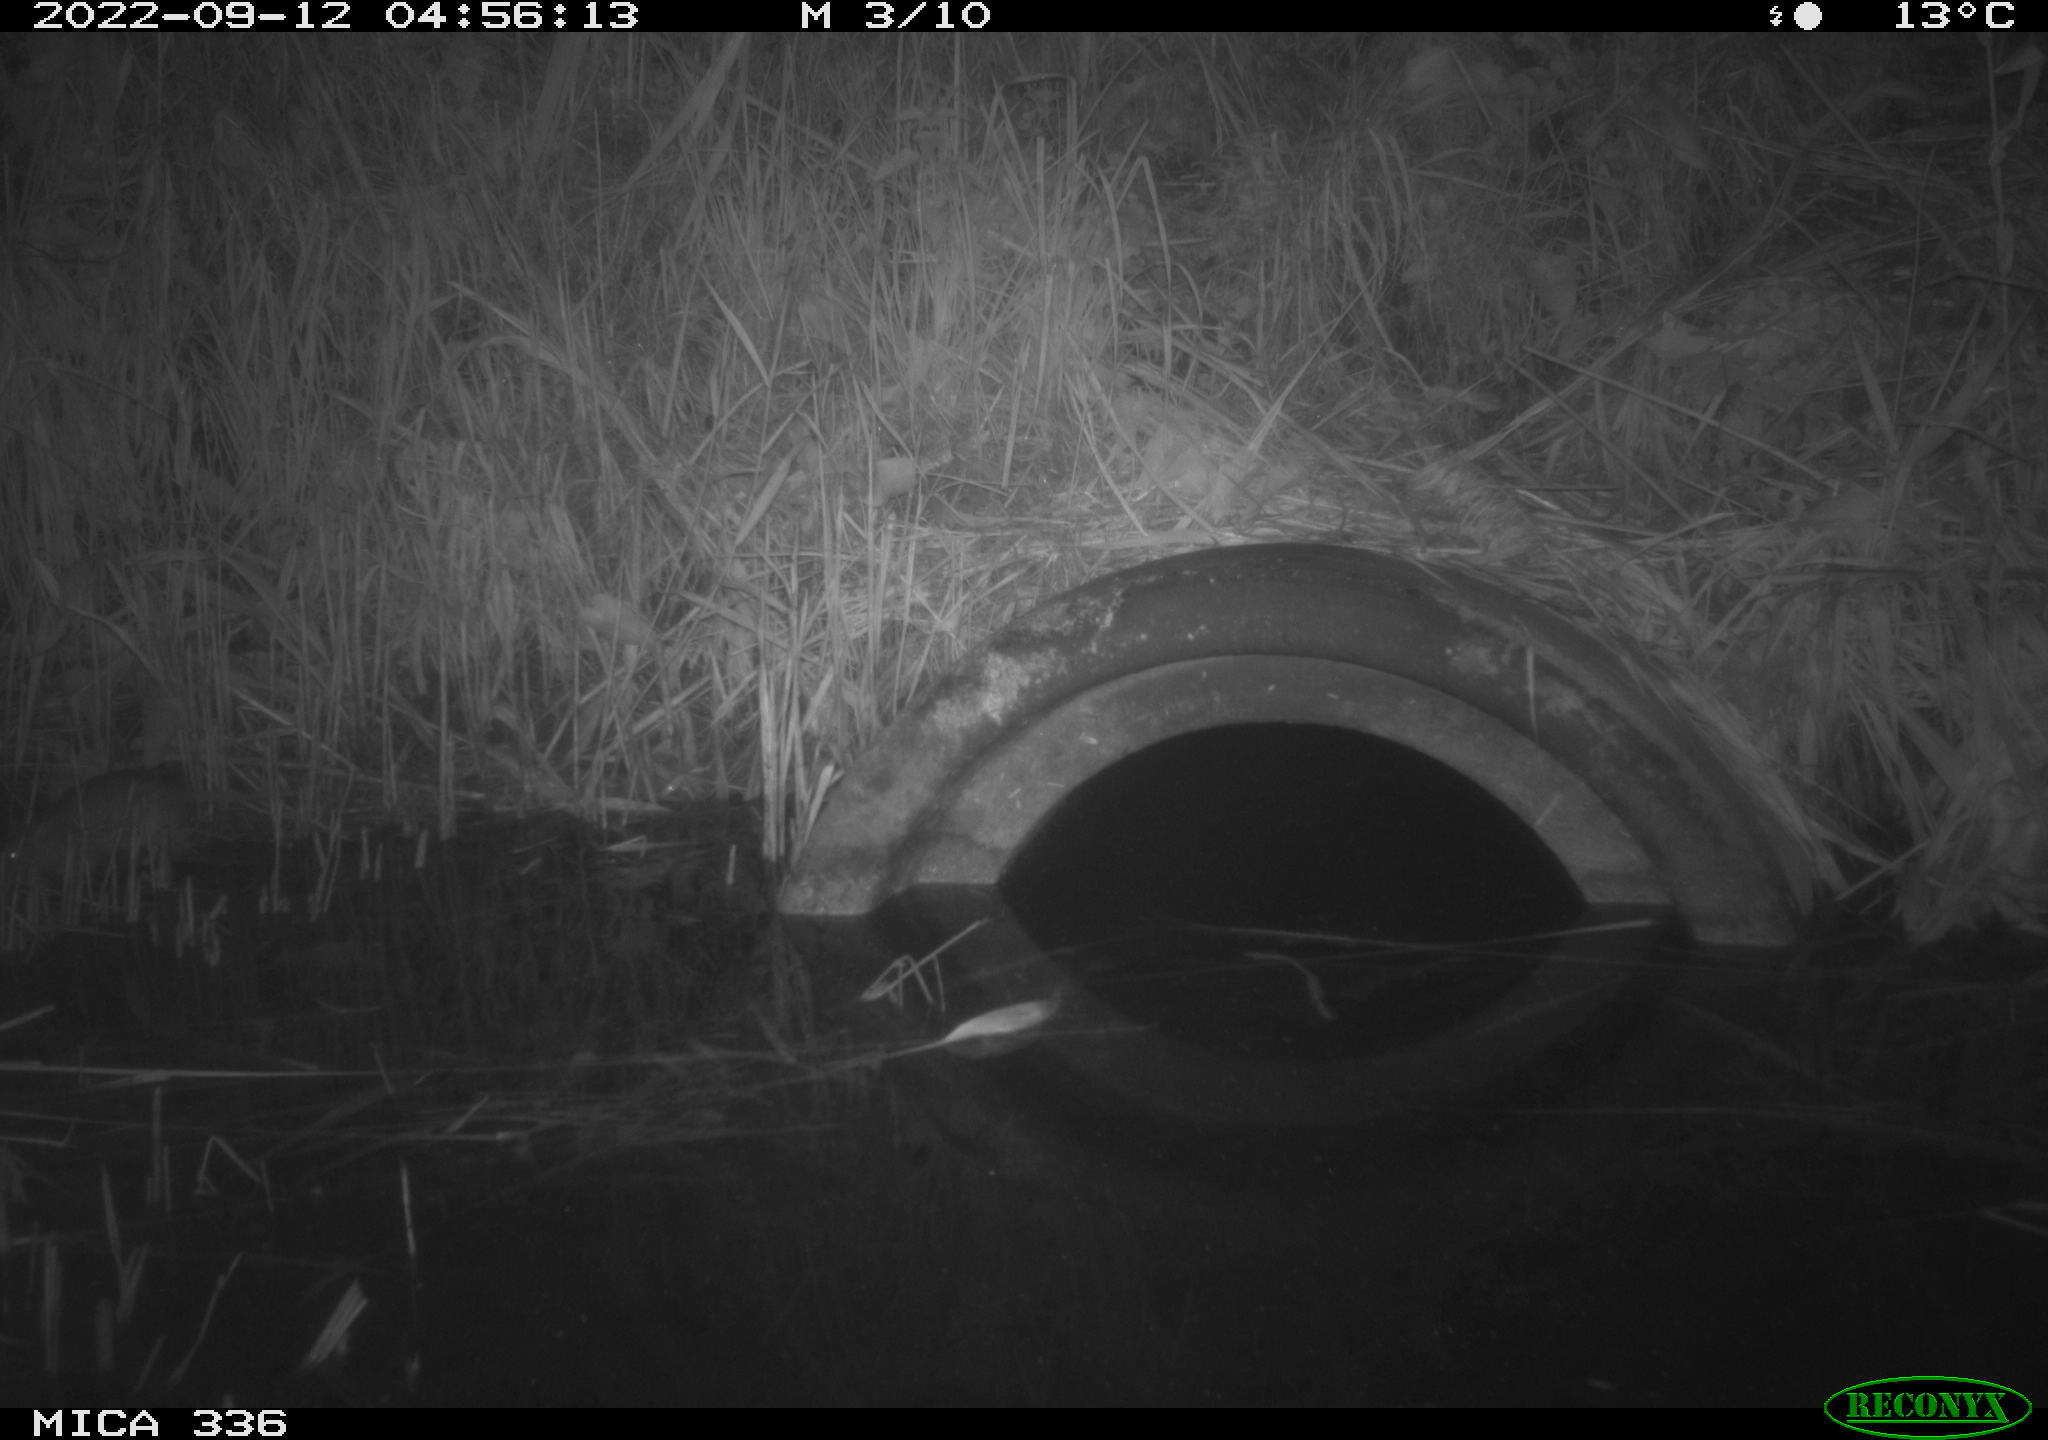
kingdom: Animalia
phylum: Chordata
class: Mammalia
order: Rodentia
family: Muridae
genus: Rattus
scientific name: Rattus norvegicus
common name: Brown rat
